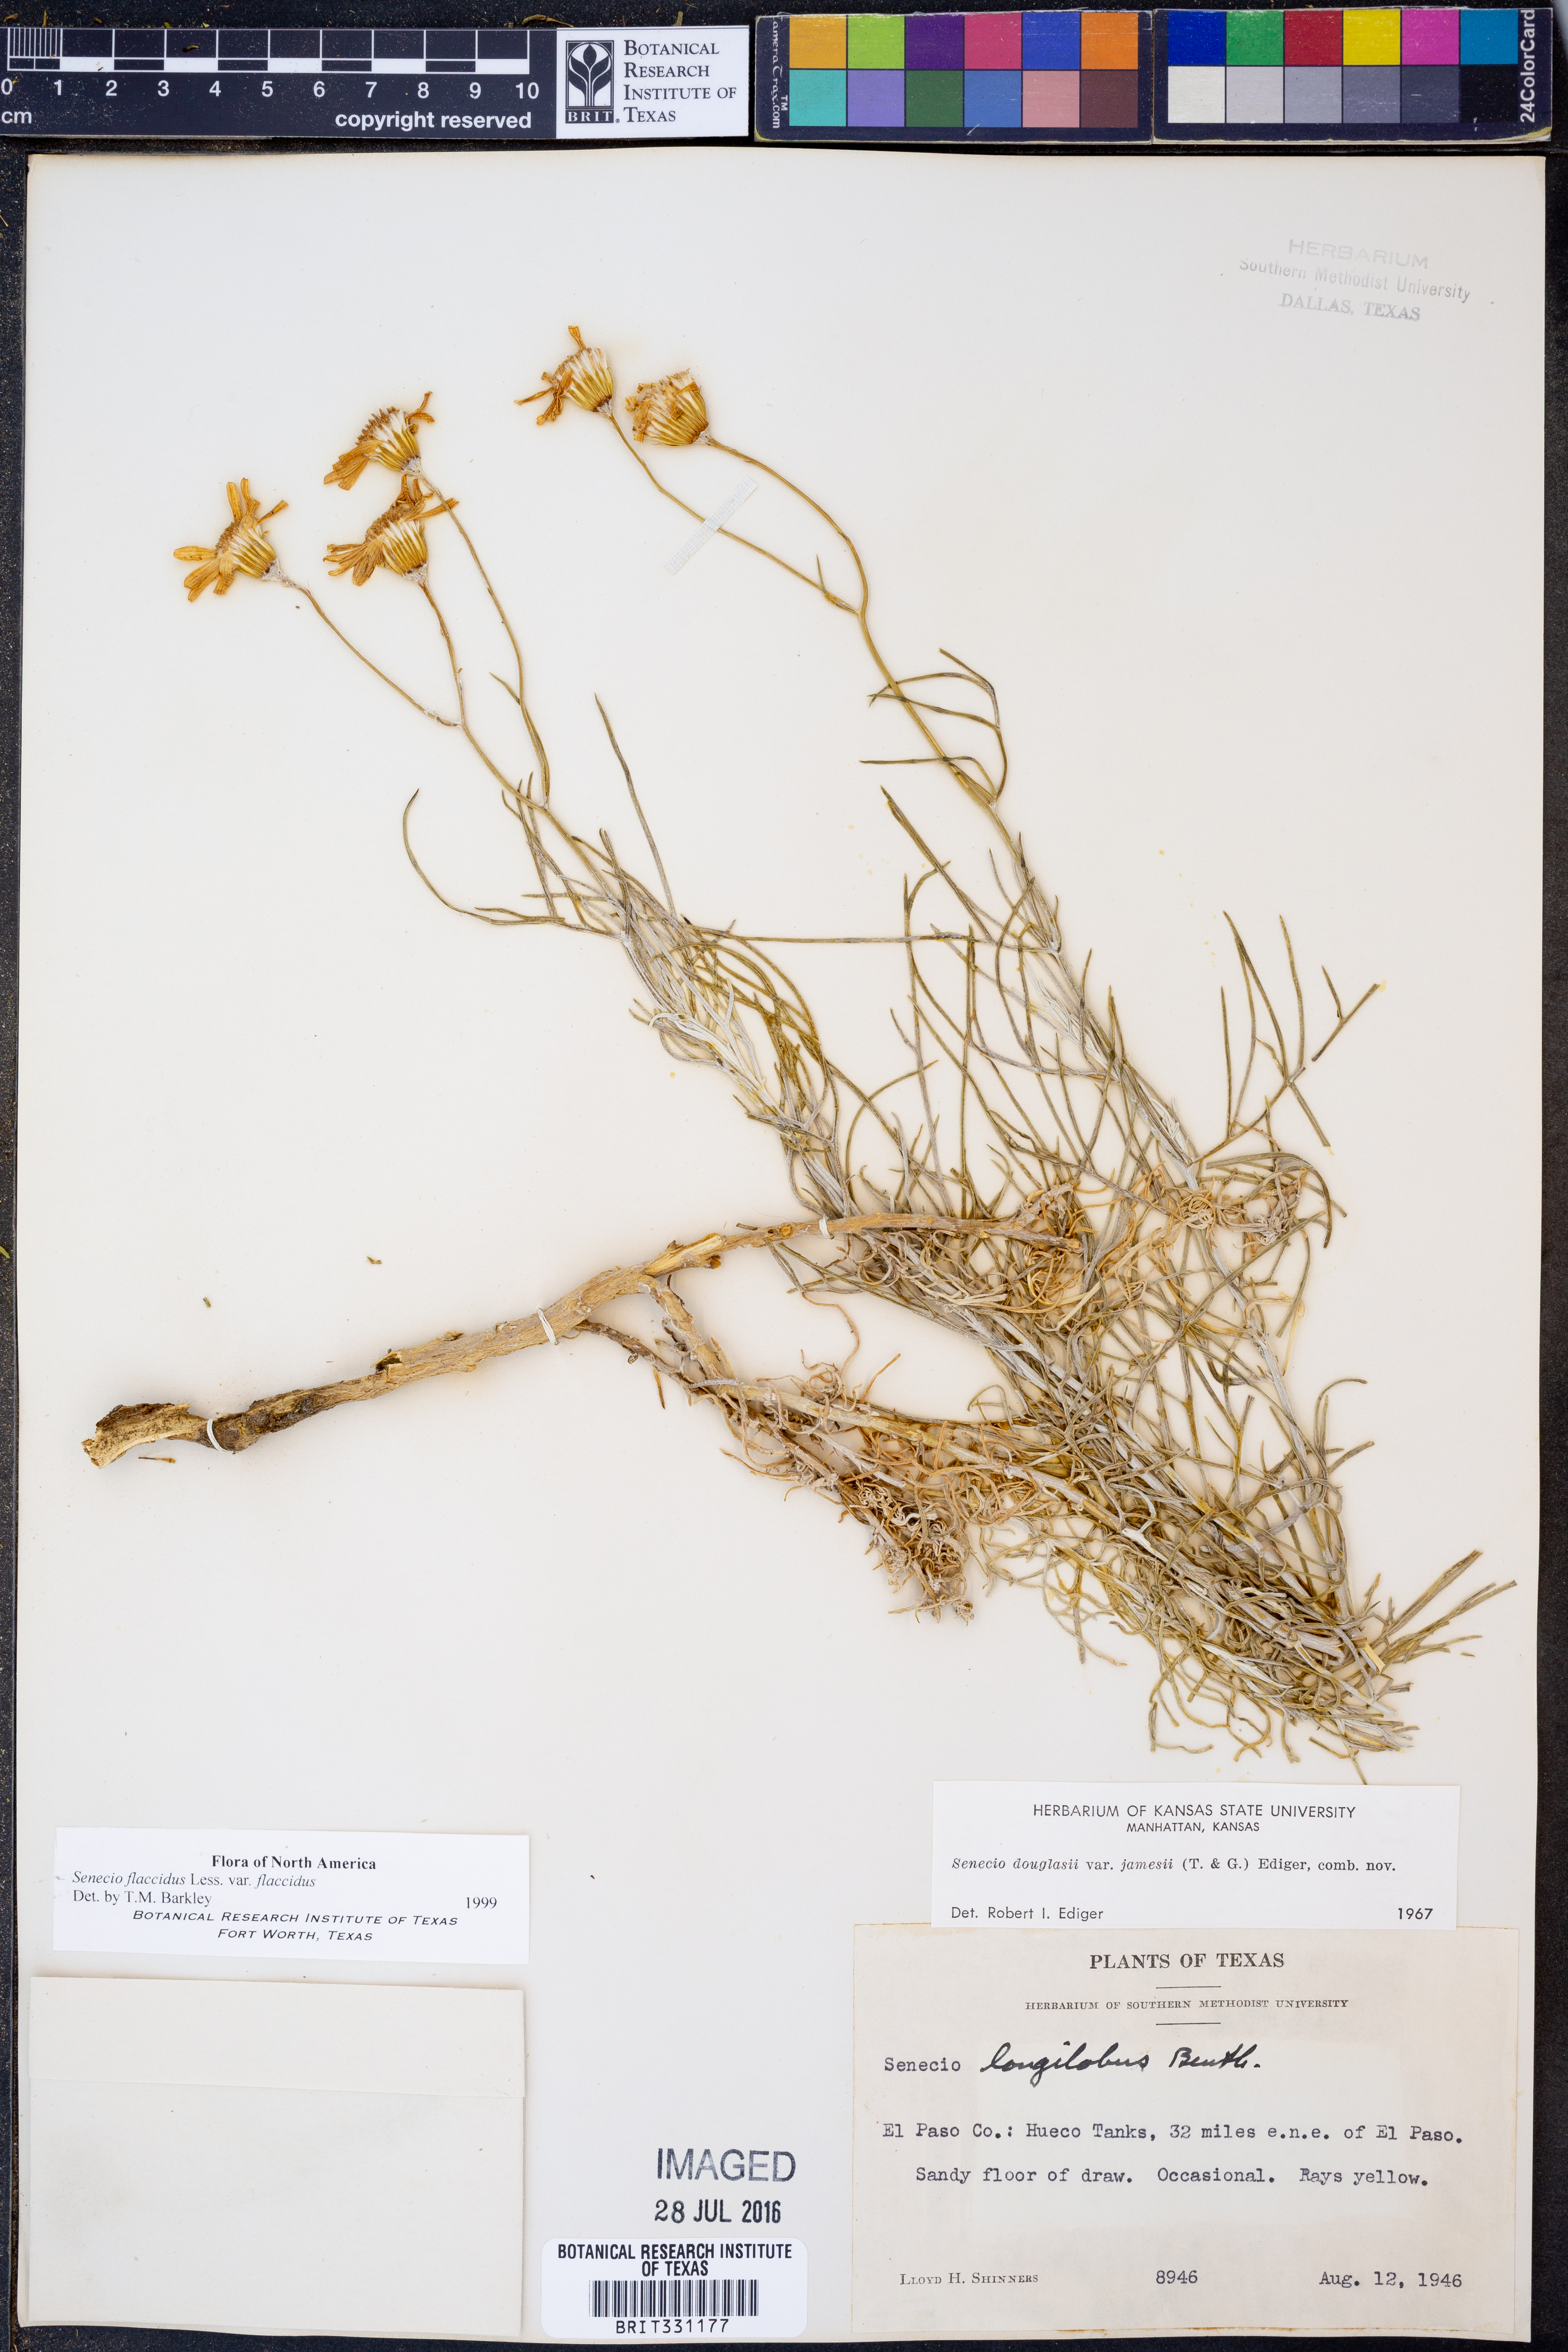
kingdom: Plantae
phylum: Tracheophyta
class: Magnoliopsida
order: Asterales
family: Asteraceae
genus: Senecio
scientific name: Senecio flaccidus
